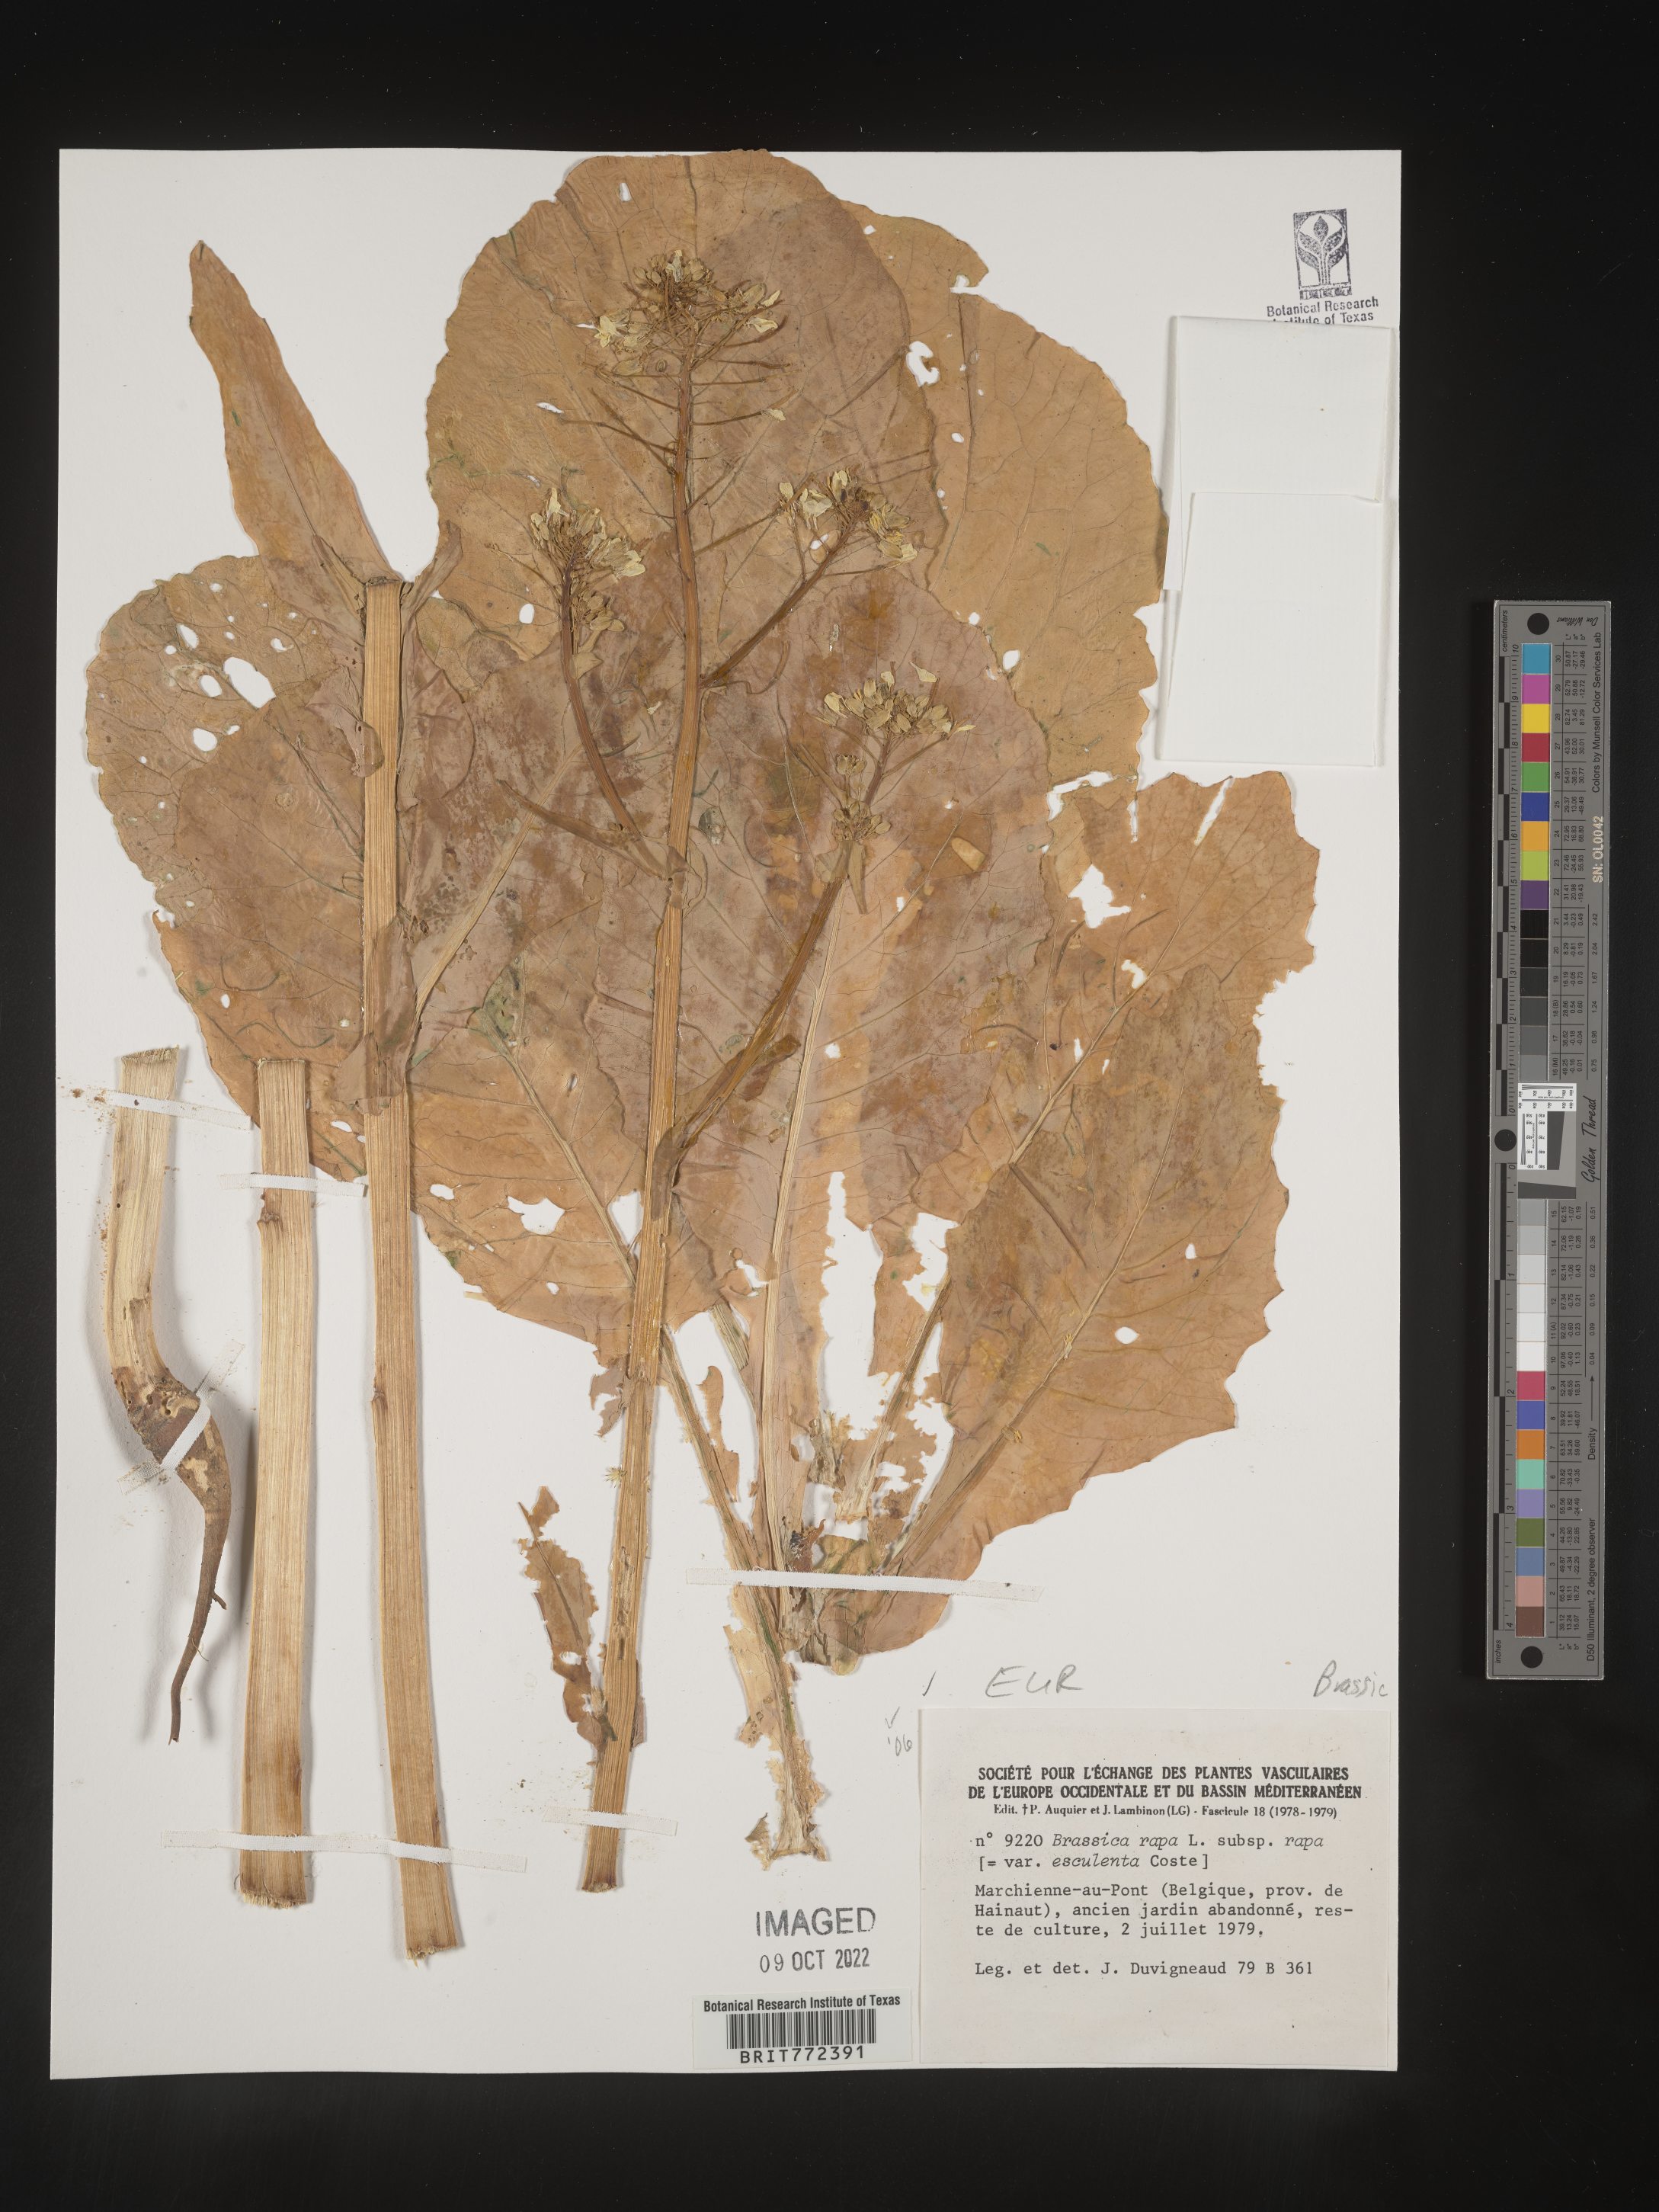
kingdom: Plantae
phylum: Tracheophyta
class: Magnoliopsida
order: Brassicales
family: Brassicaceae
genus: Brassica
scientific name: Brassica
